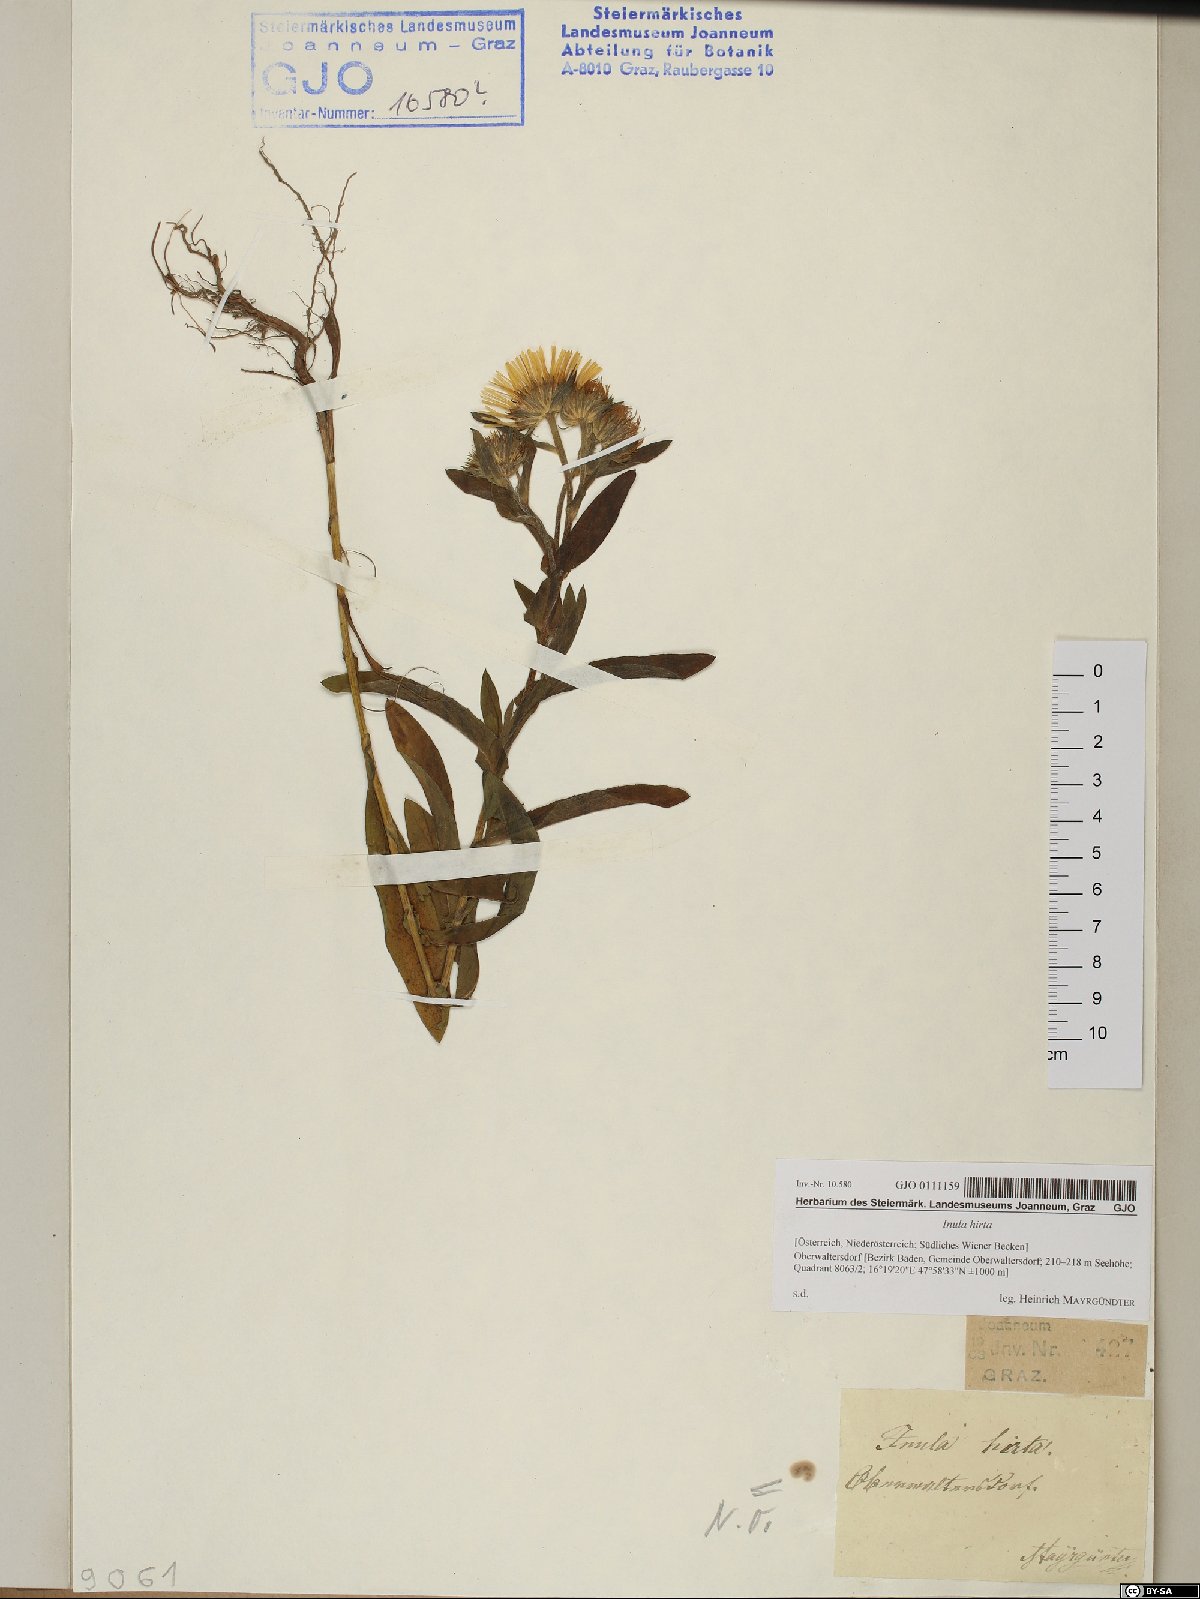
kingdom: Plantae
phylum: Tracheophyta
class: Magnoliopsida
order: Asterales
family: Asteraceae
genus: Pentanema
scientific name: Pentanema hirtum
